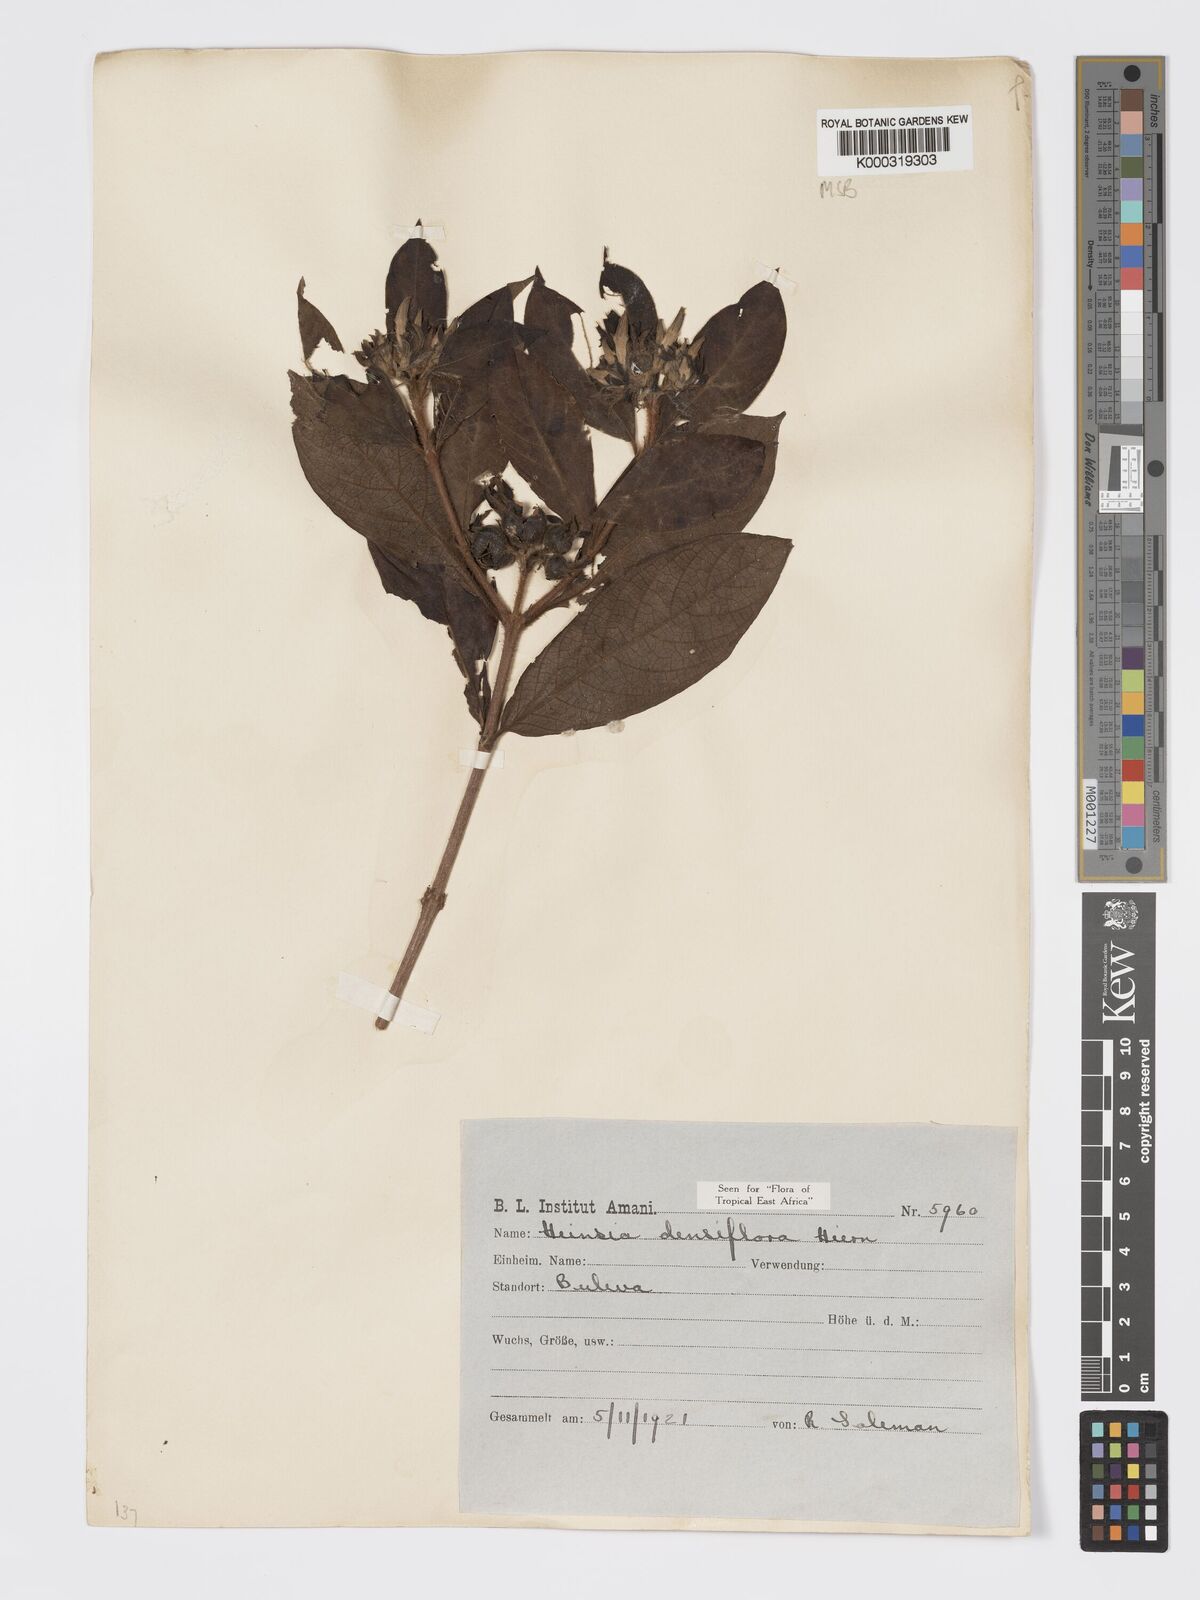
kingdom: Plantae
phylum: Tracheophyta
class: Magnoliopsida
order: Gentianales
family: Rubiaceae
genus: Heinsia
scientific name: Heinsia zanzibarica
